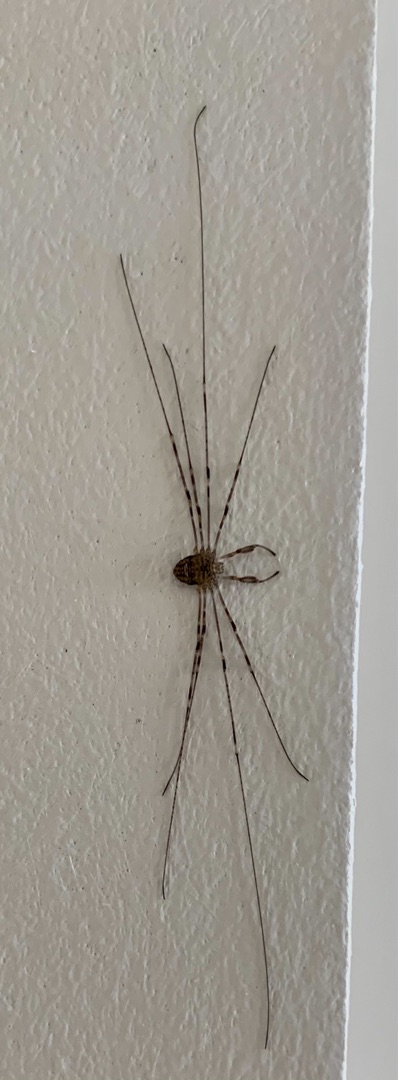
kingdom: Animalia
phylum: Arthropoda
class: Arachnida
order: Opiliones
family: Phalangiidae
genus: Dicranopalpus
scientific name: Dicranopalpus ramosus
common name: Gaffelmejer
